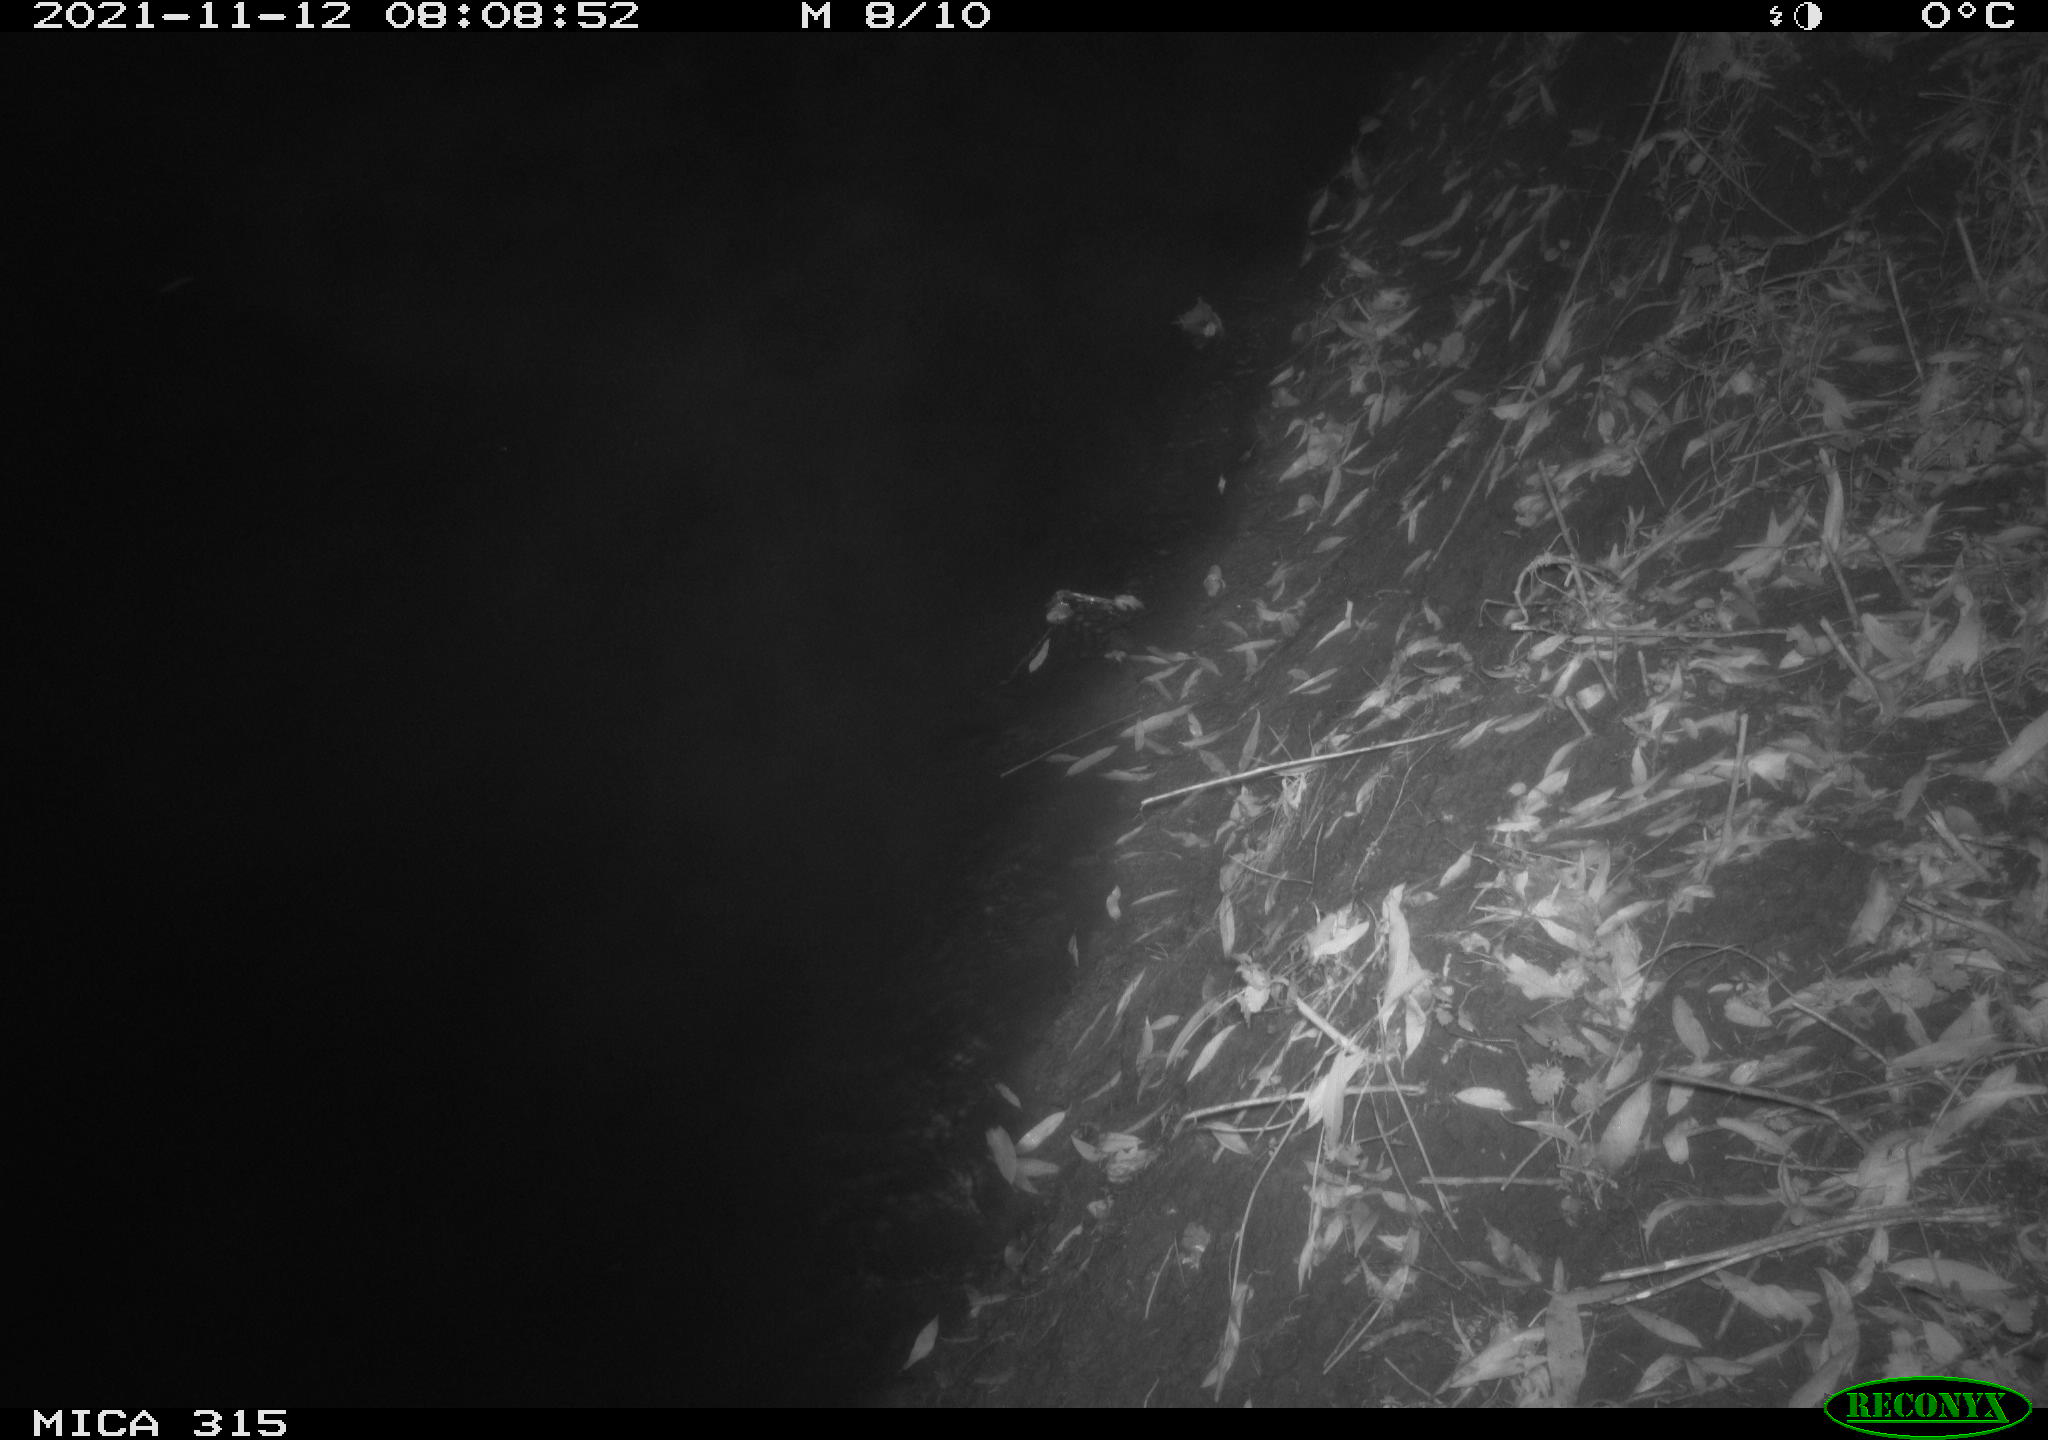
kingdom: Animalia
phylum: Chordata
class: Aves
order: Anseriformes
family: Anatidae
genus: Anas
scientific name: Anas platyrhynchos
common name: Mallard
